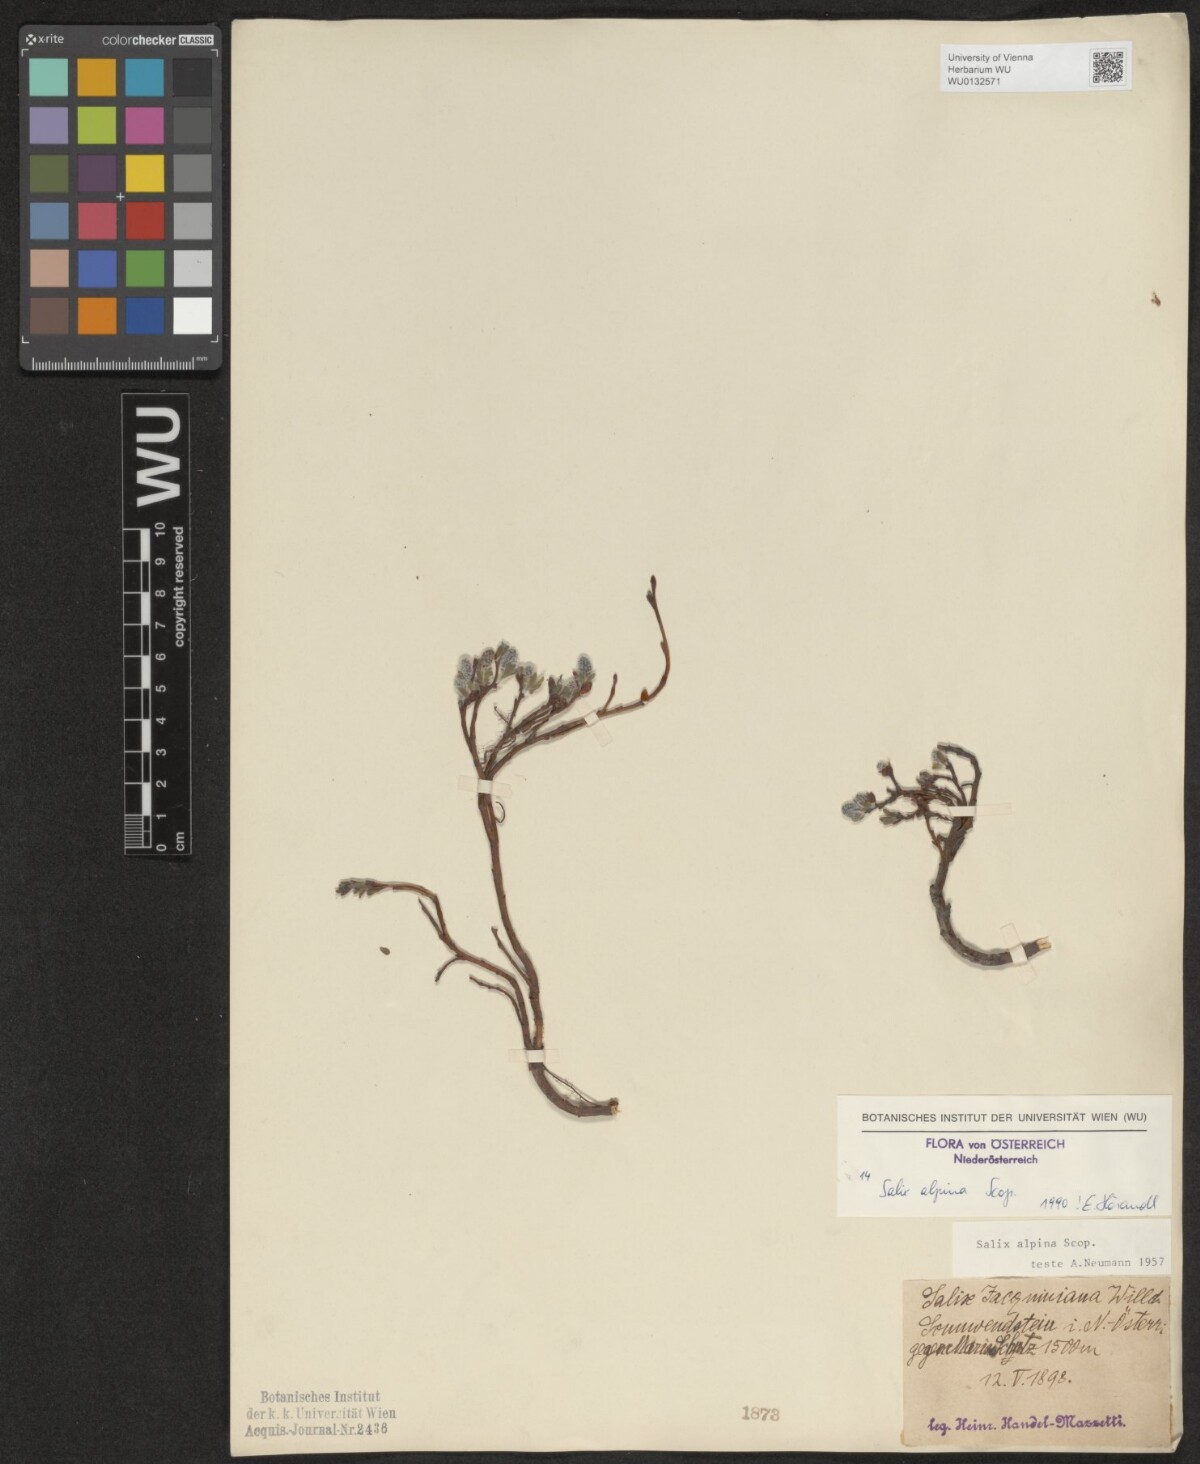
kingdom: Plantae
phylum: Tracheophyta
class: Magnoliopsida
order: Malpighiales
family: Salicaceae
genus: Salix
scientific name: Salix alpina
